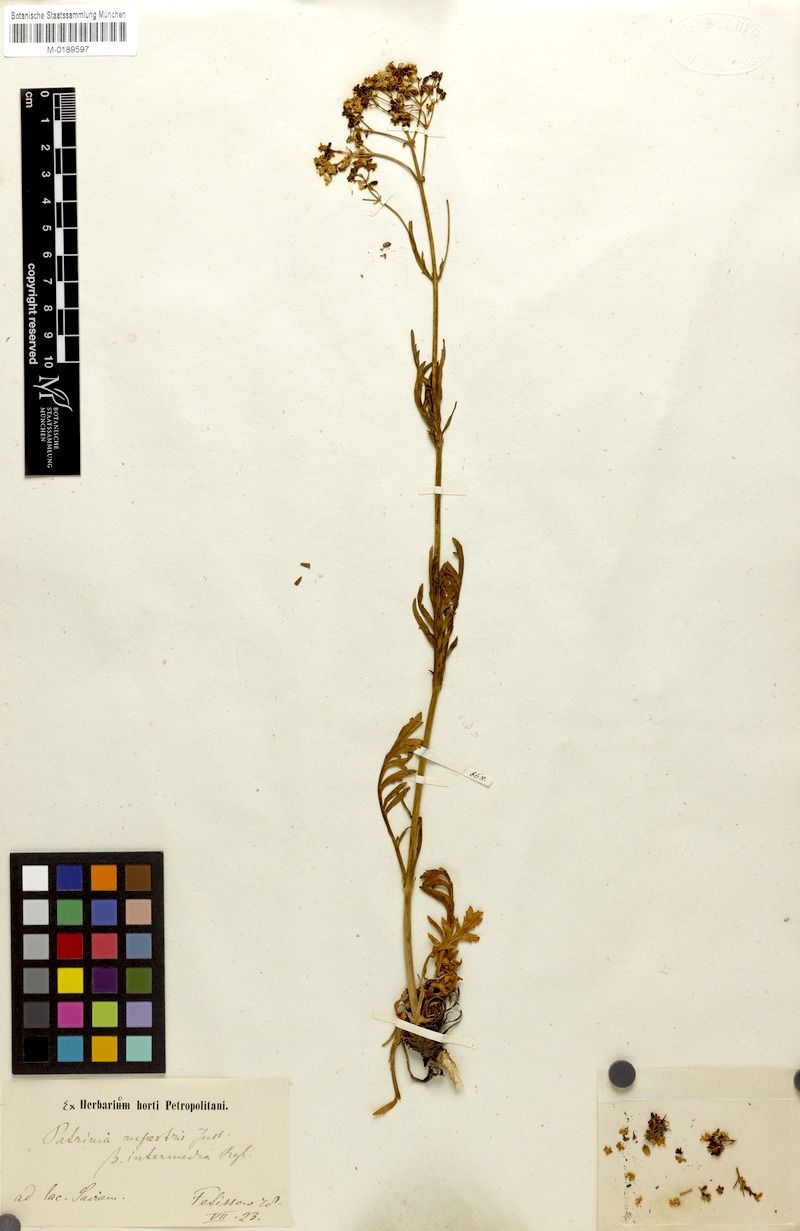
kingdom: Plantae
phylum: Tracheophyta
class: Magnoliopsida
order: Dipsacales
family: Caprifoliaceae
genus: Patrinia
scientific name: Patrinia rupestris
